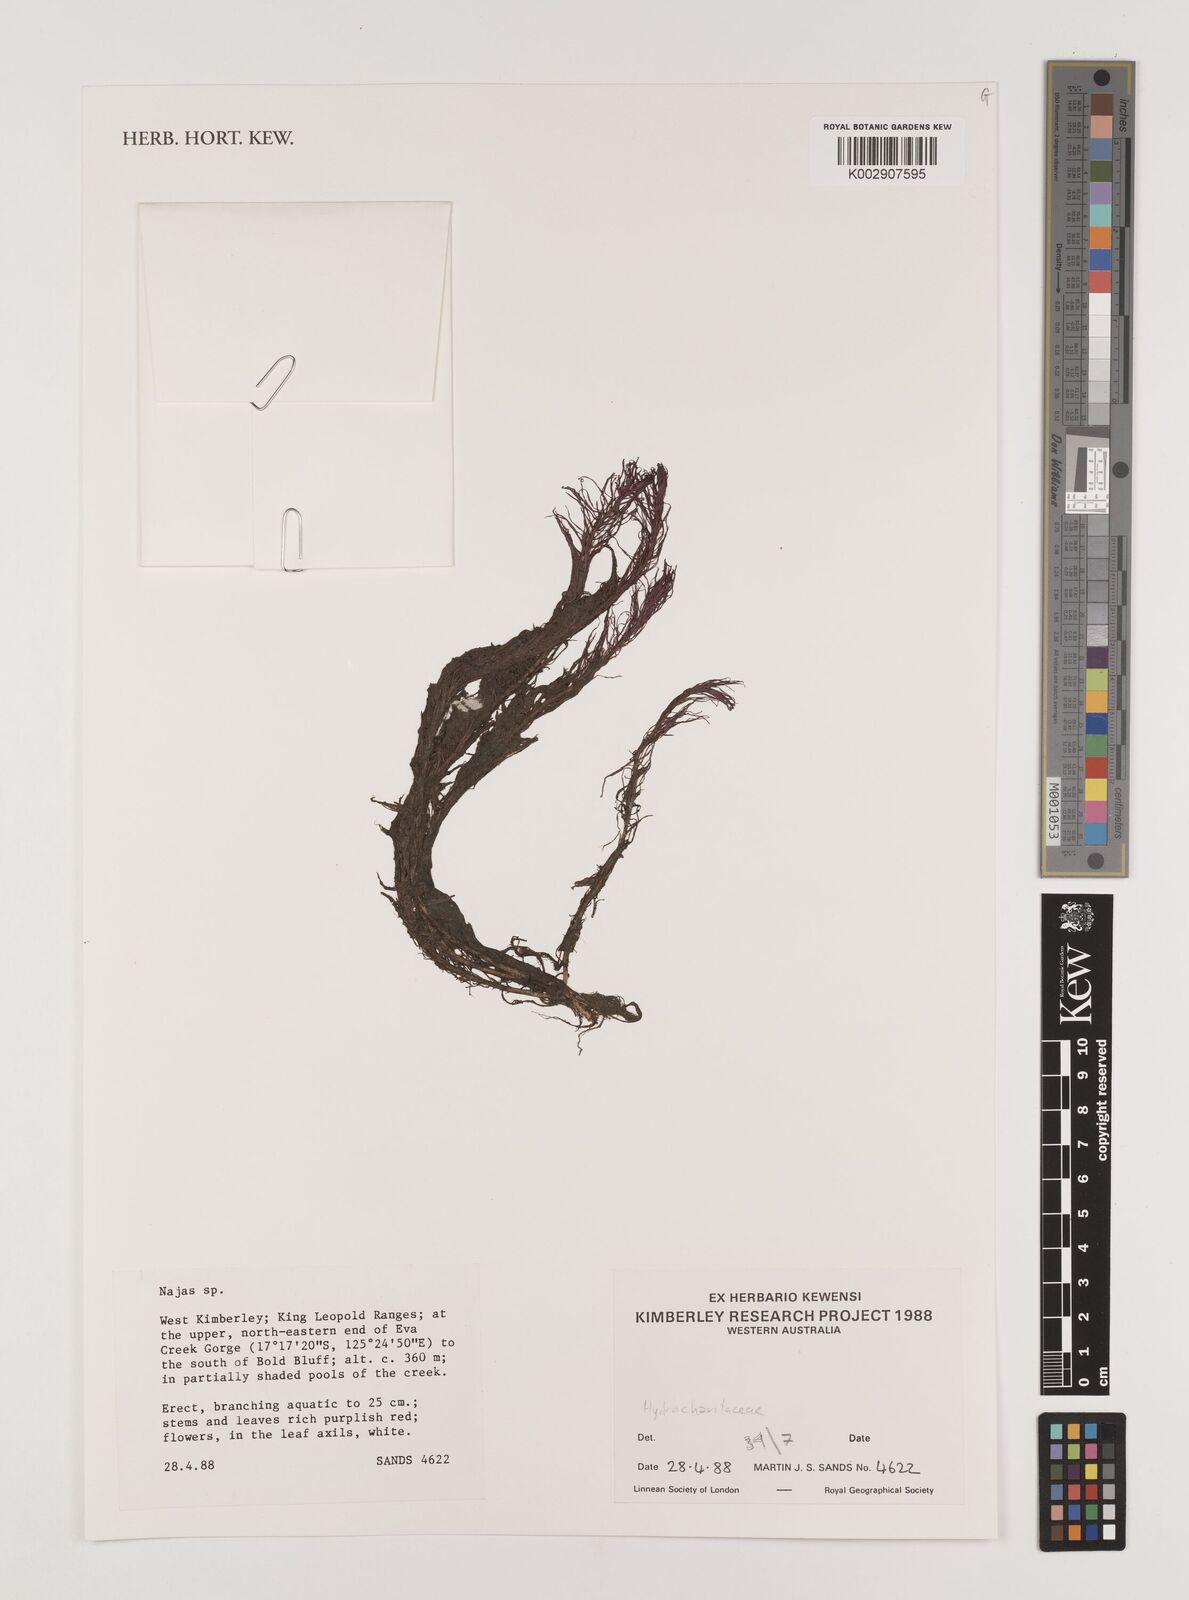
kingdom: Plantae
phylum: Tracheophyta
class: Liliopsida
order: Alismatales
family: Hydrocharitaceae
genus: Najas
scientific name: Najas
